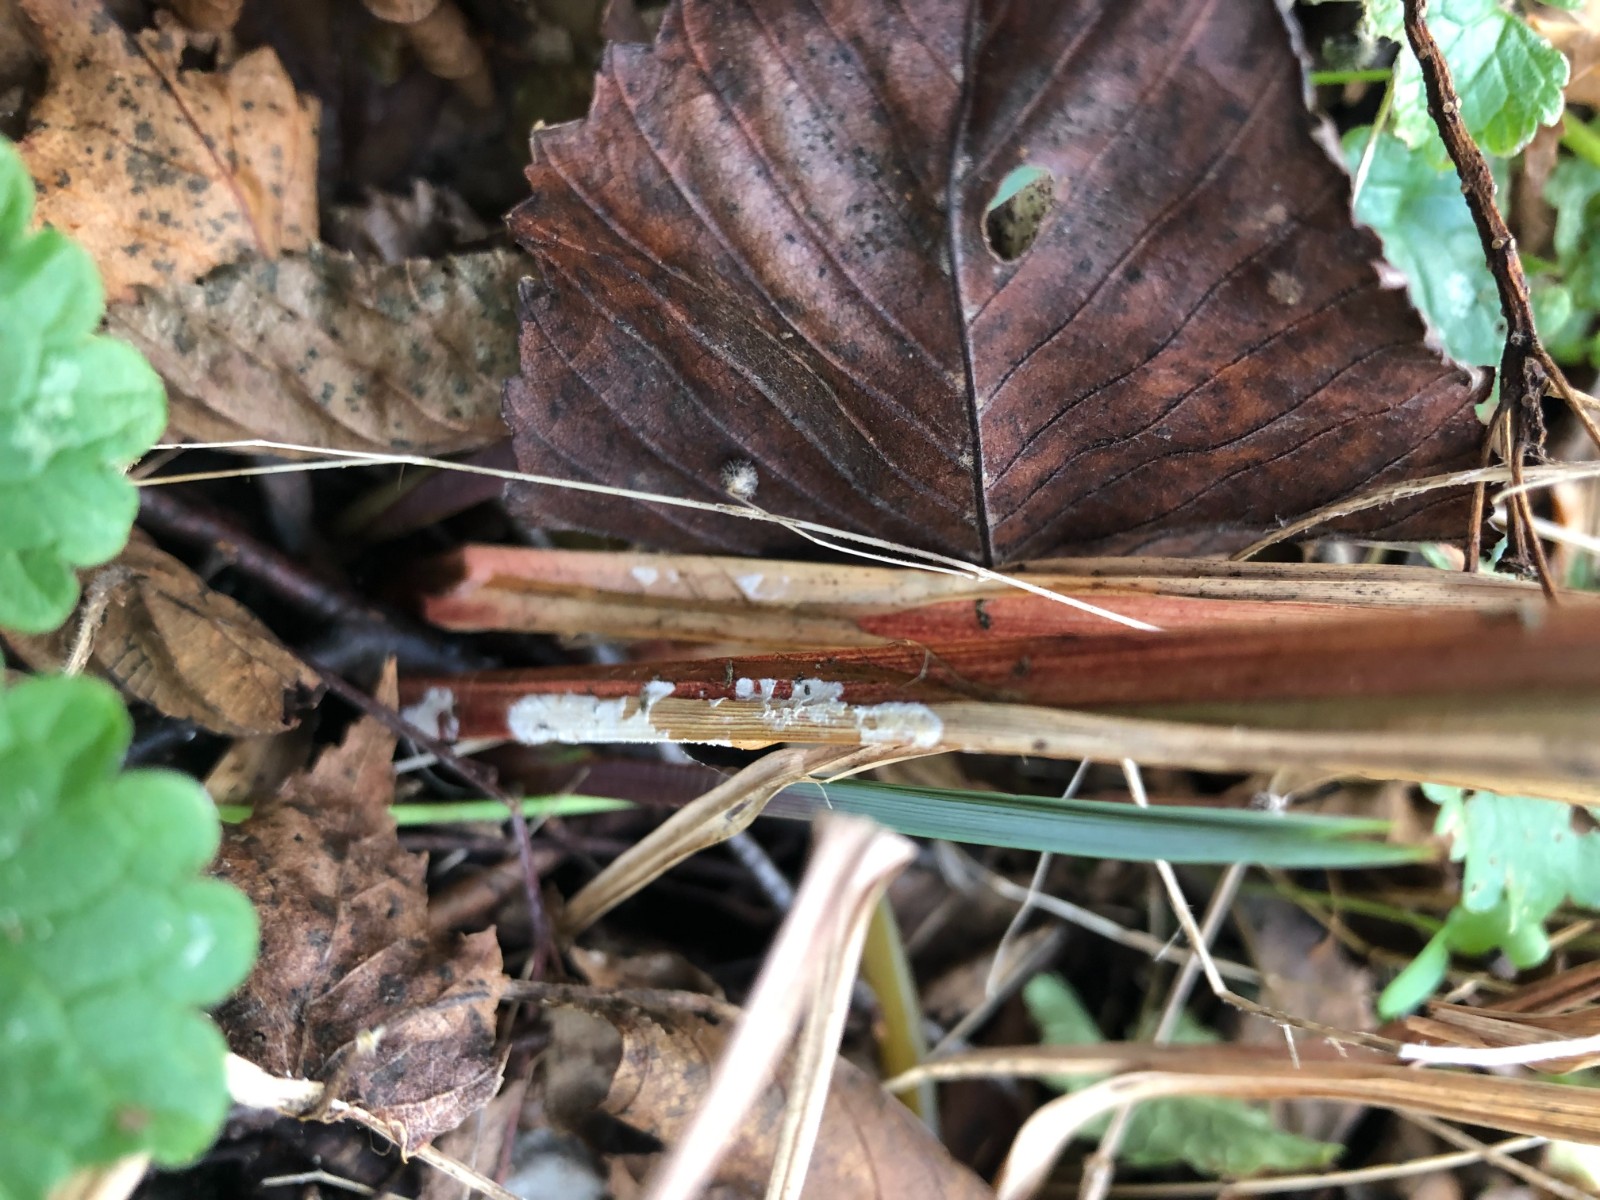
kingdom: Fungi
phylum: Basidiomycota
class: Agaricomycetes
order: Polyporales
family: Polyporaceae
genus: Epithele
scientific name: Epithele typhae
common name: starpig
